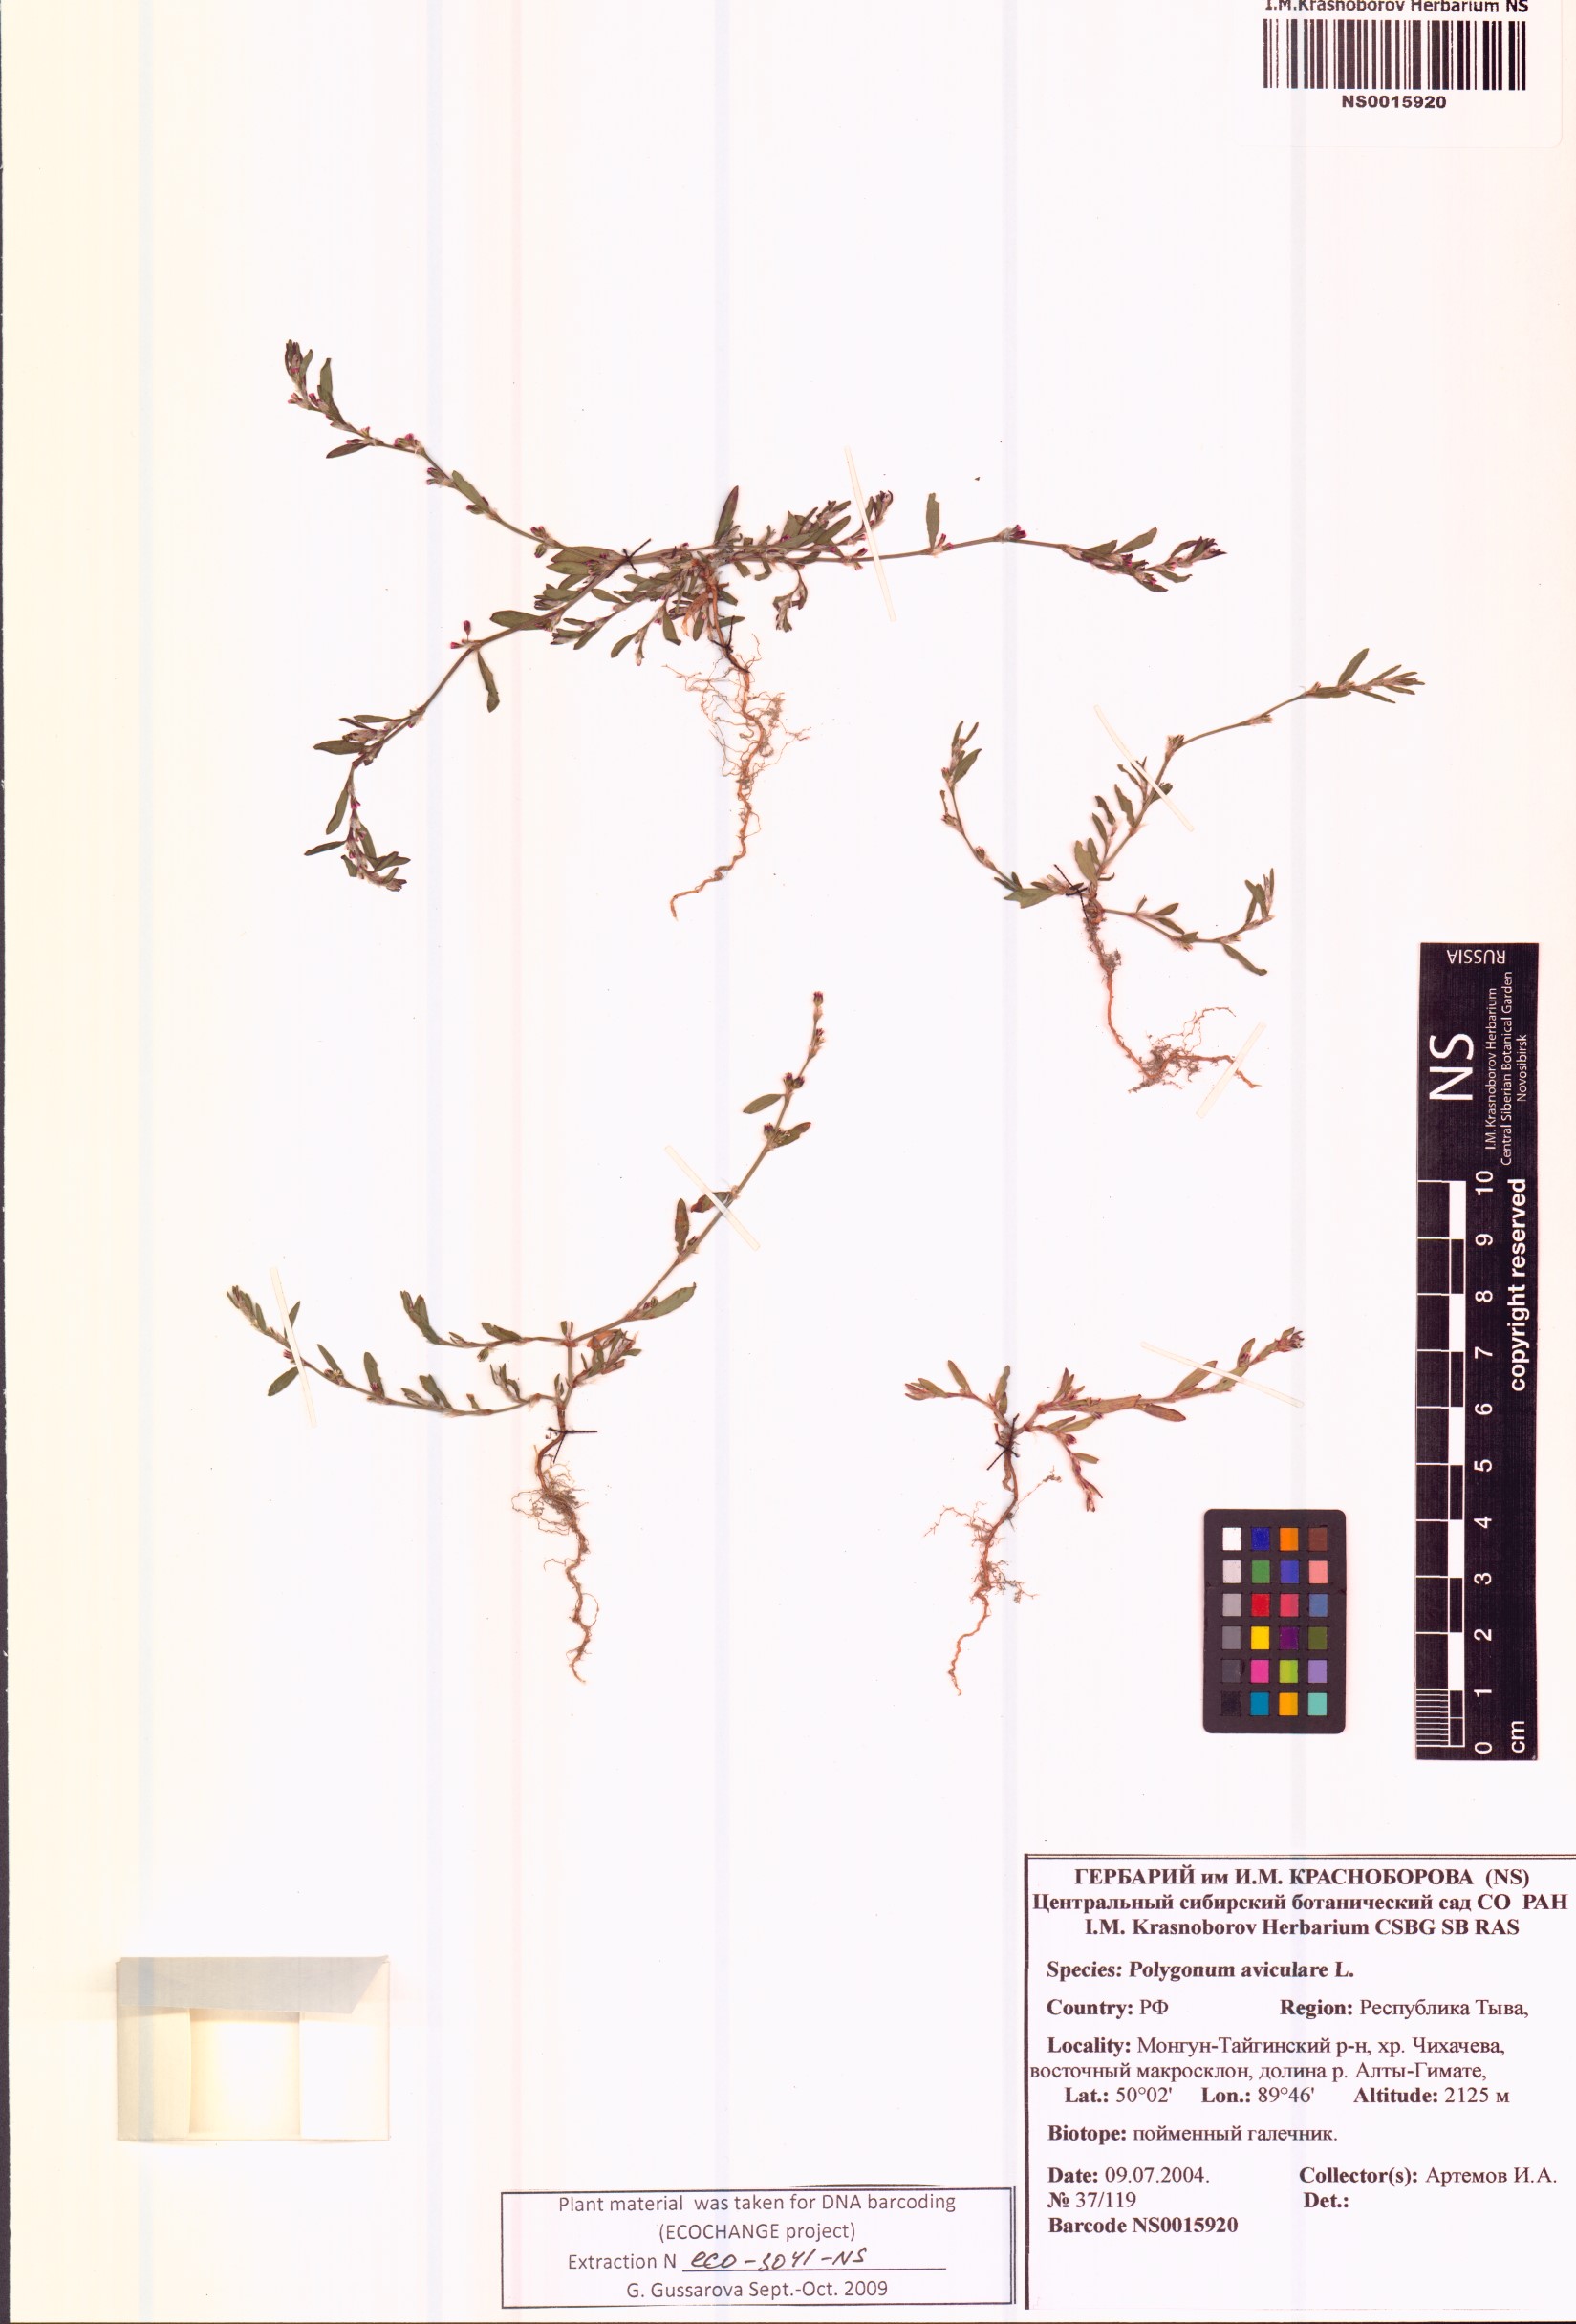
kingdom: Plantae
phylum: Tracheophyta
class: Magnoliopsida
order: Caryophyllales
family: Polygonaceae
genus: Polygonum
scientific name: Polygonum aviculare
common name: Prostrate knotweed
